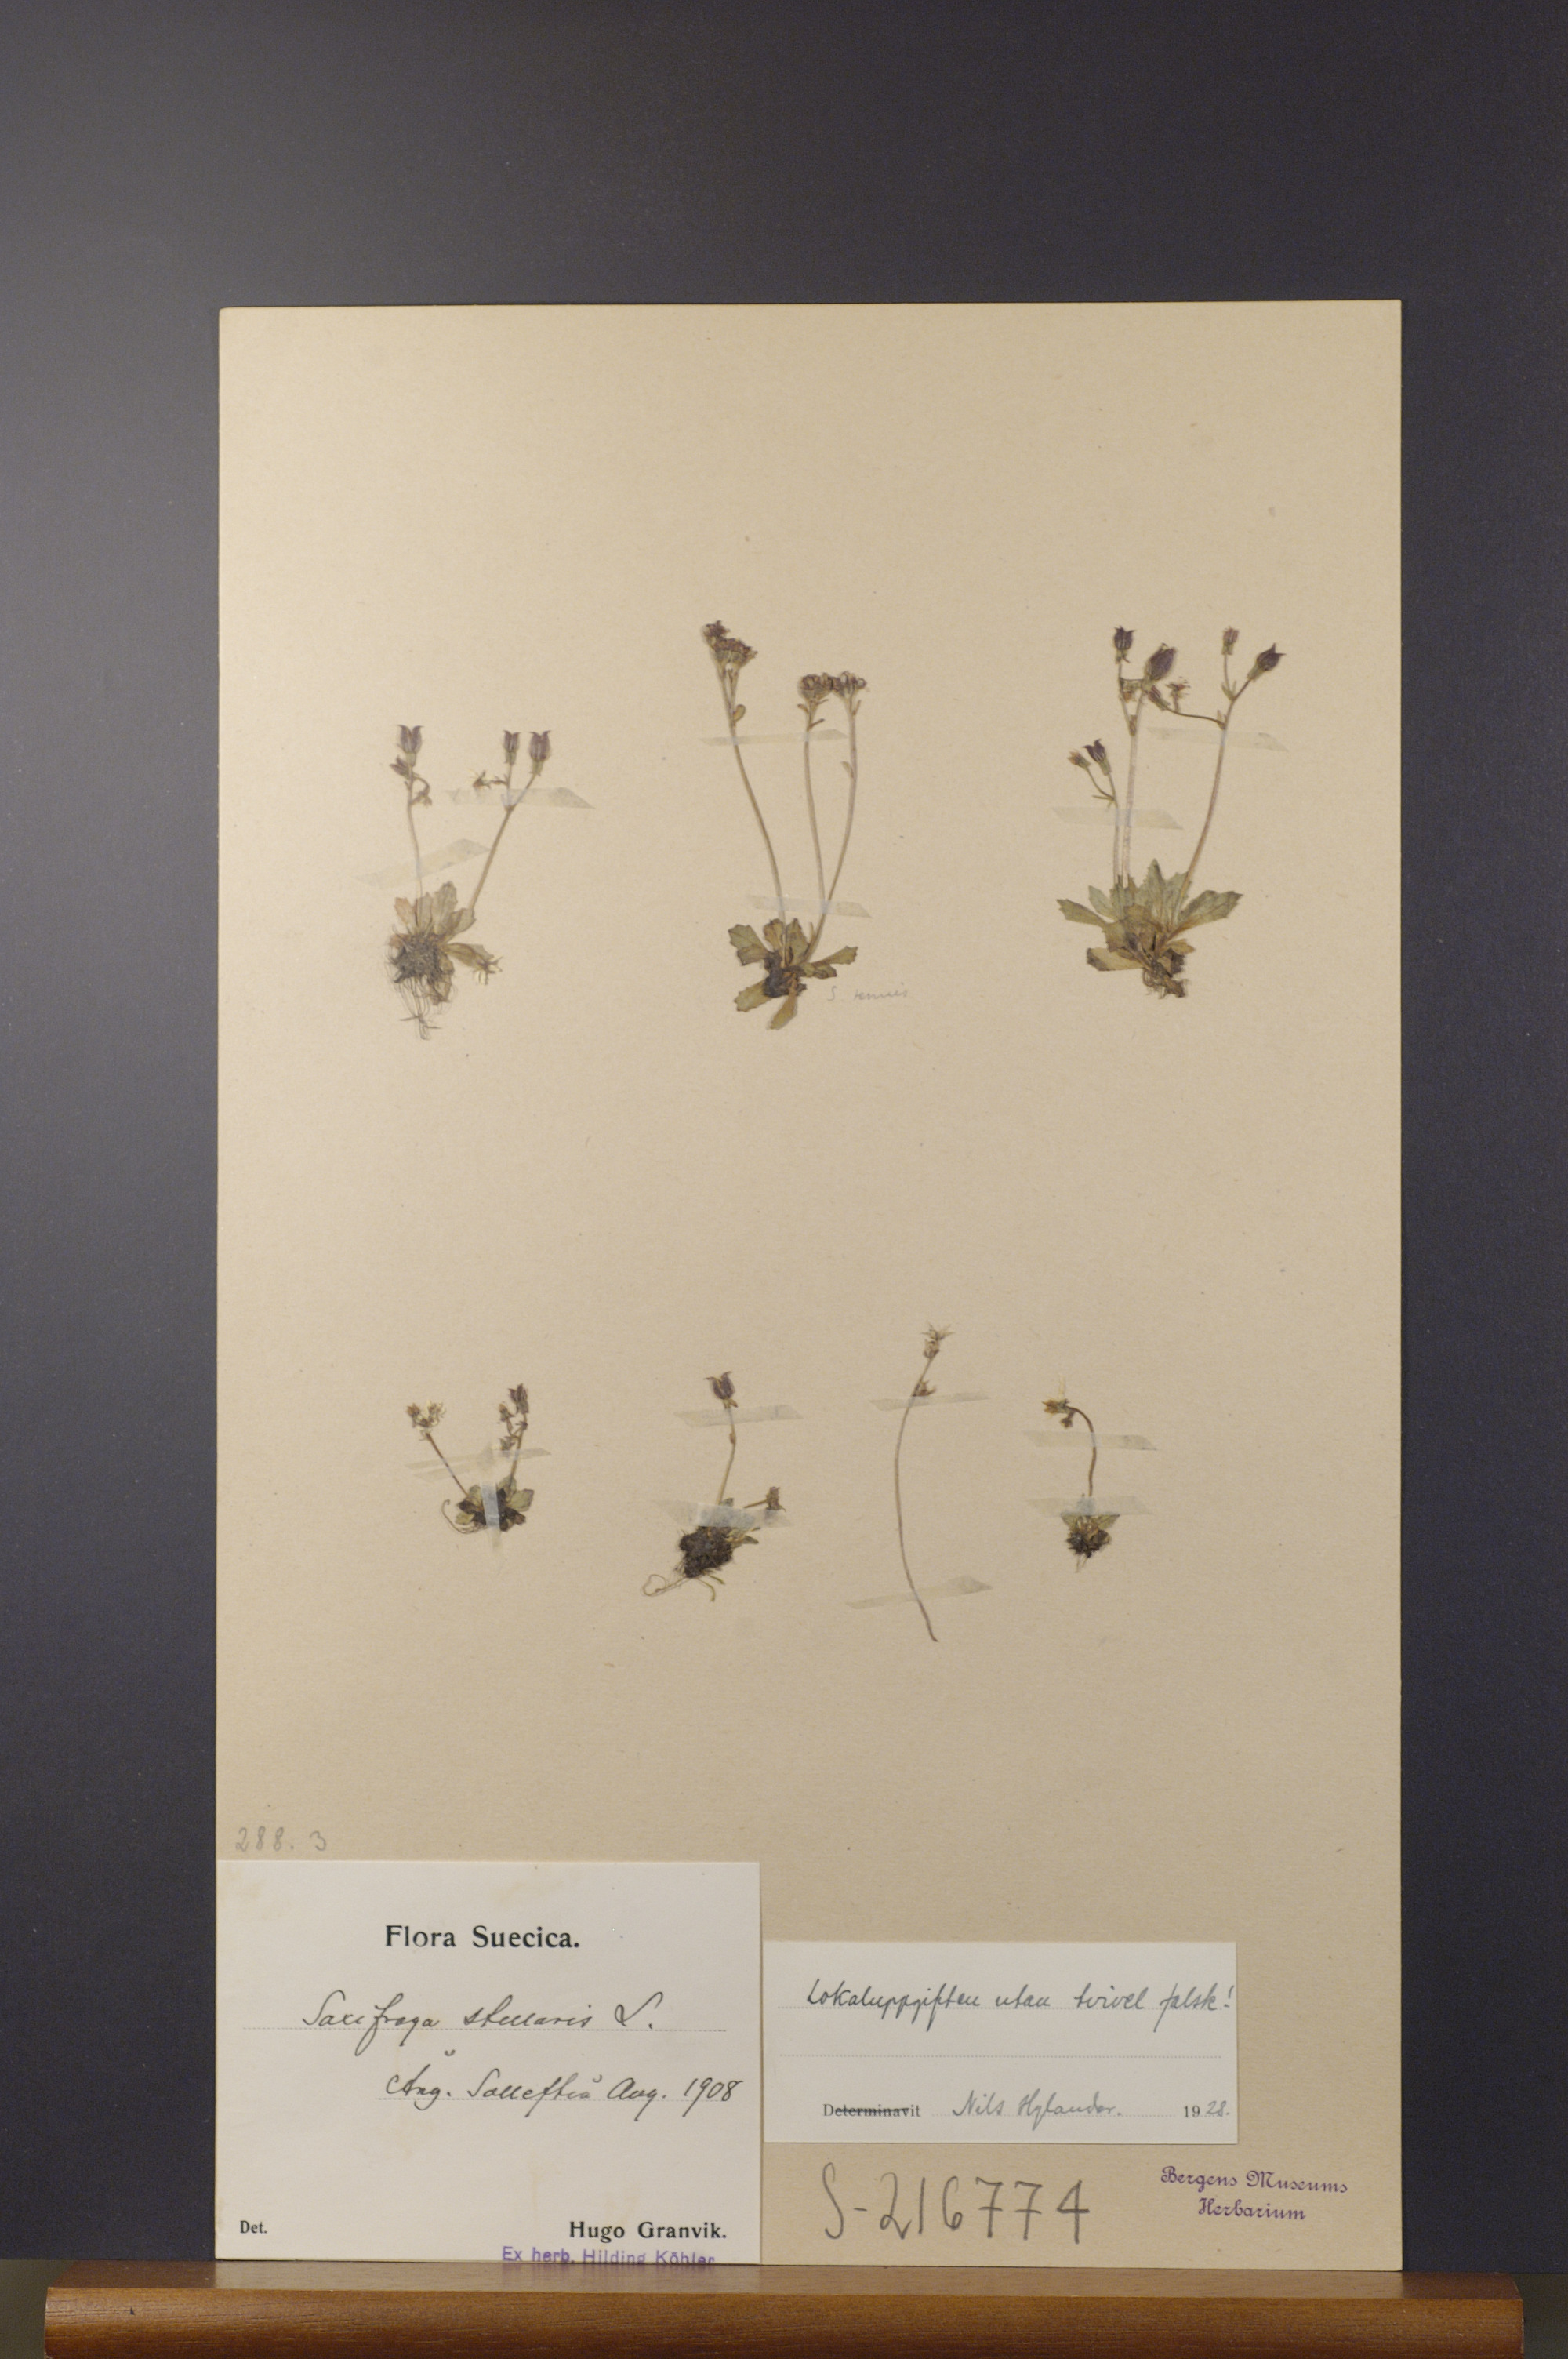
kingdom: Plantae
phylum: Tracheophyta
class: Magnoliopsida
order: Saxifragales
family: Saxifragaceae
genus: Micranthes
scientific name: Micranthes stellaris
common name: Starry saxifrage
